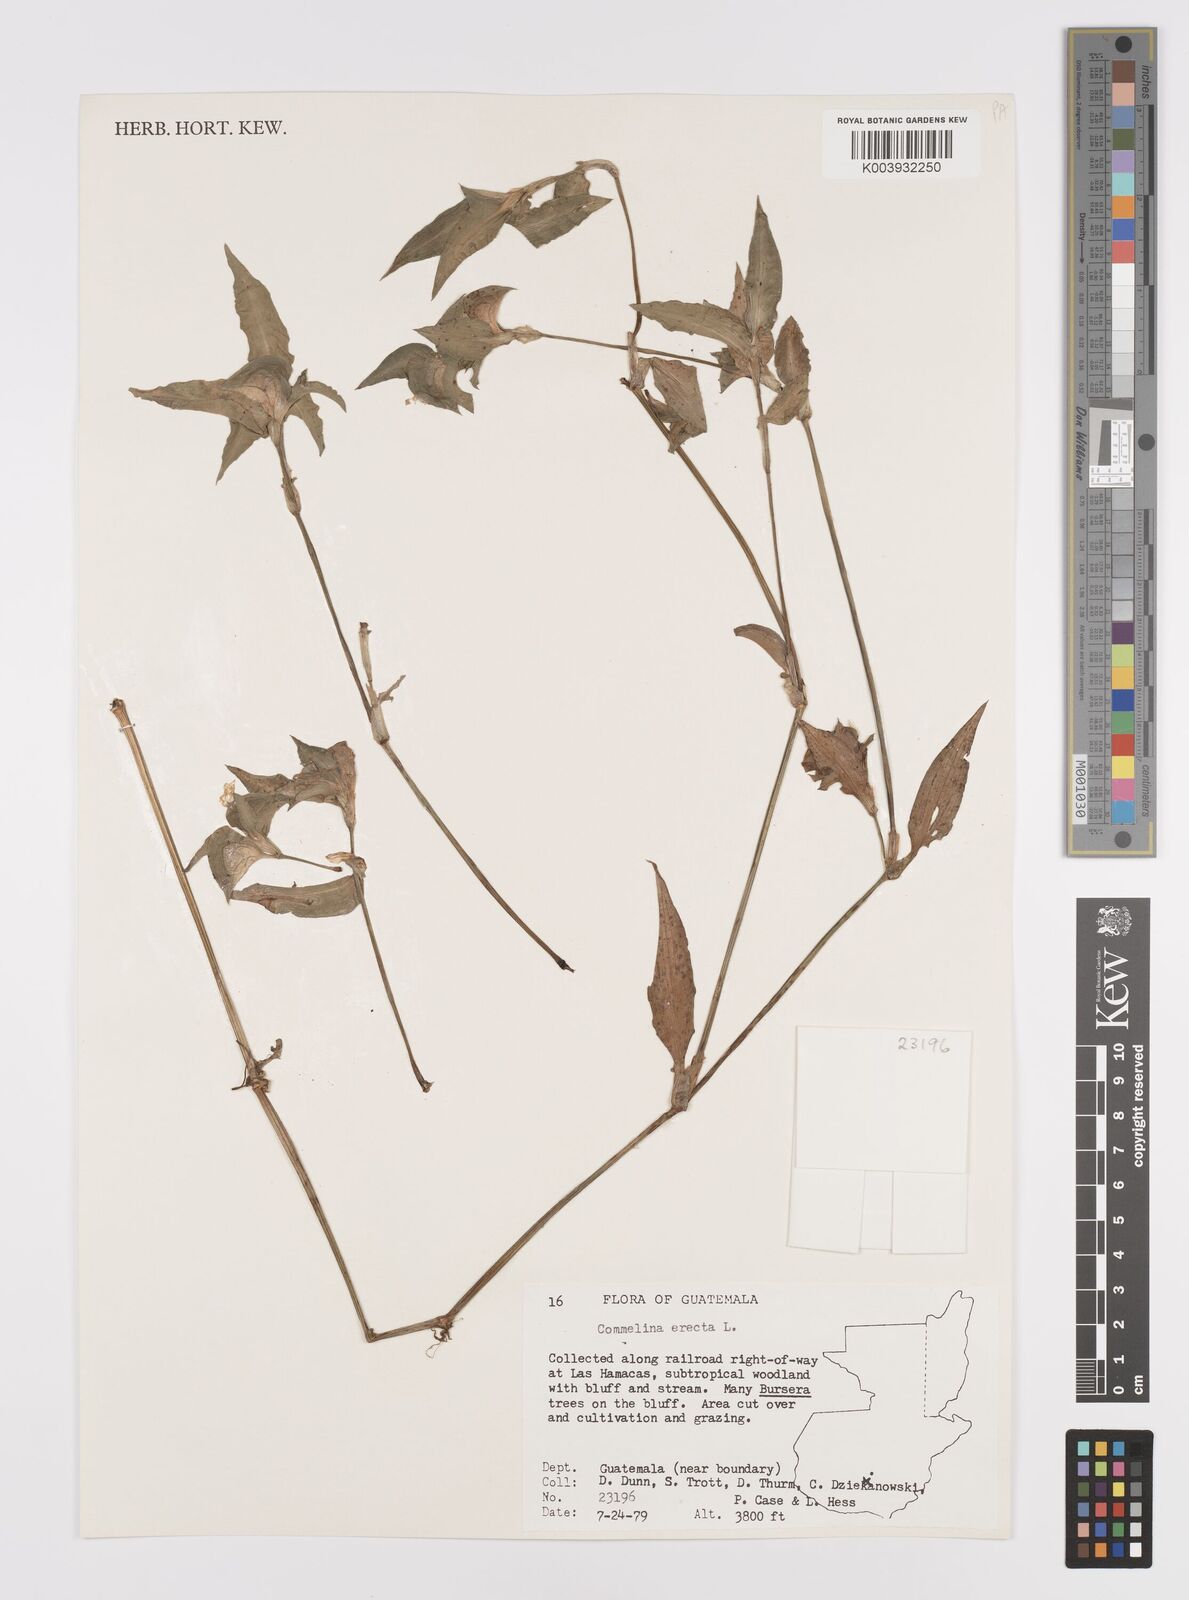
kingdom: Plantae
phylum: Tracheophyta
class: Liliopsida
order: Commelinales
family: Commelinaceae
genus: Commelina
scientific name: Commelina erecta
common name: Blousel blommetjie
